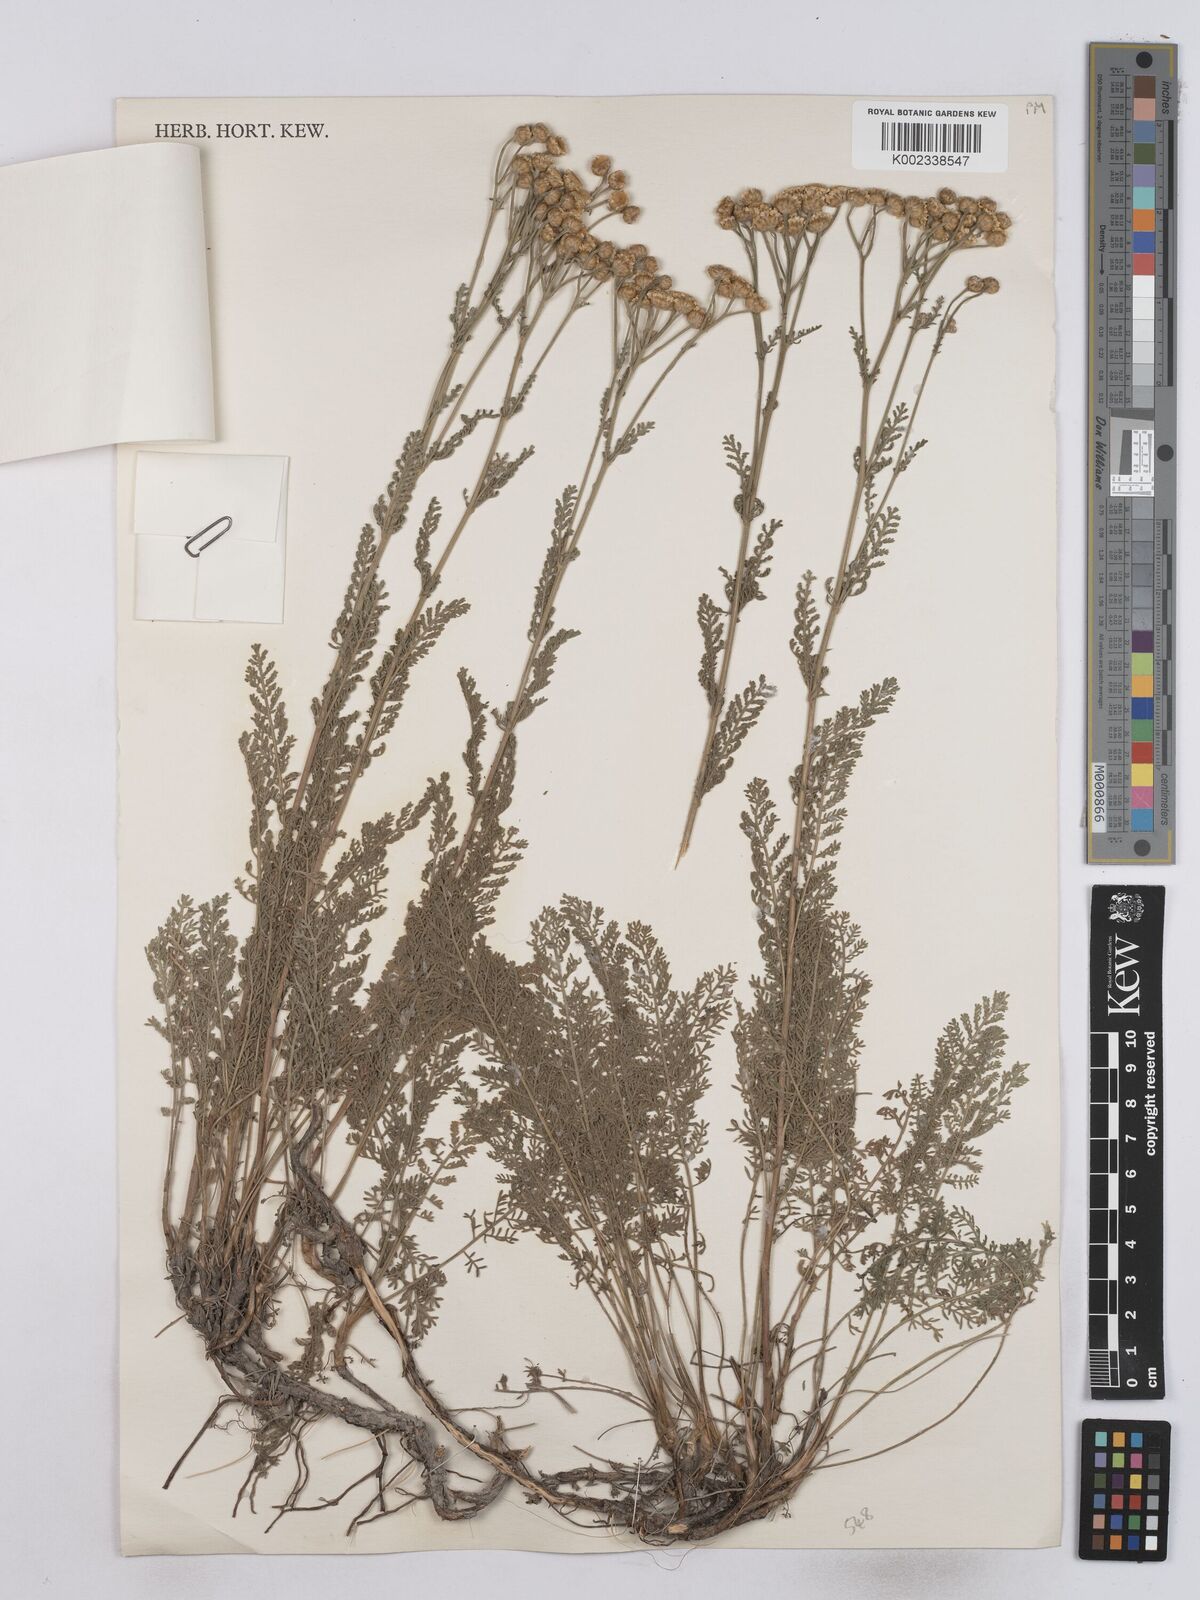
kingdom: Plantae
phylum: Tracheophyta
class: Magnoliopsida
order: Asterales
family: Asteraceae
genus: Tanacetum
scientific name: Tanacetum millefolium
